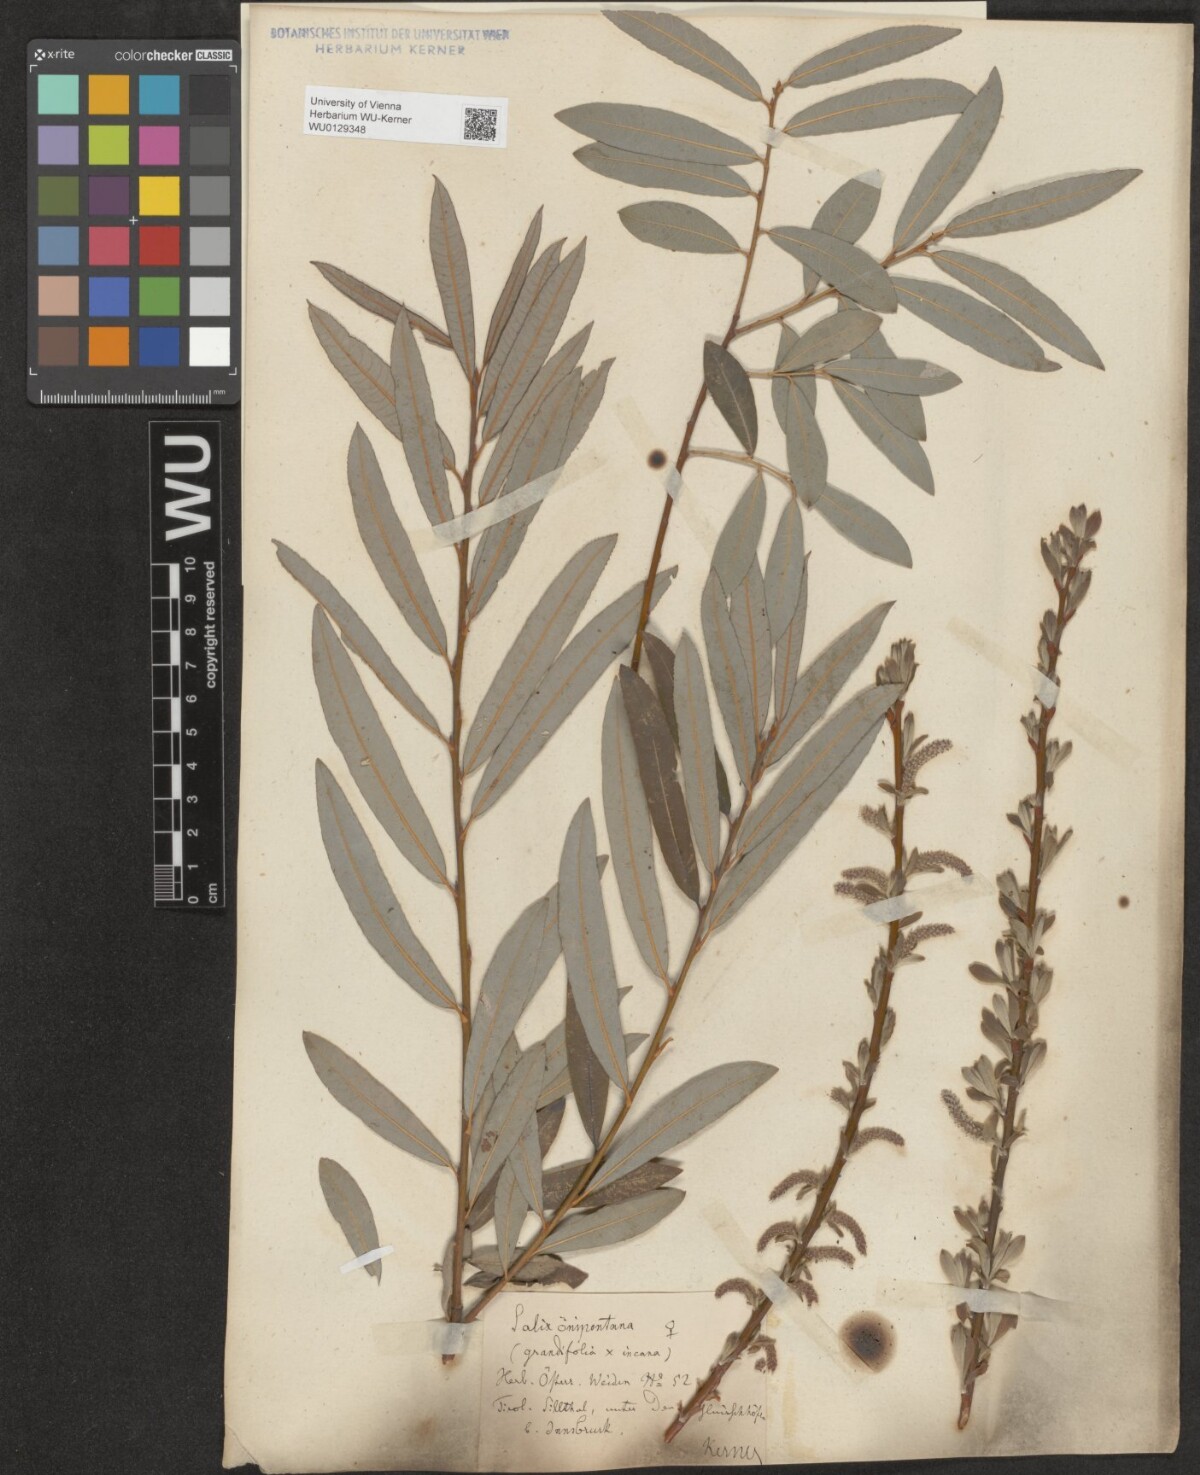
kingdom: Plantae
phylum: Tracheophyta
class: Magnoliopsida
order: Malpighiales
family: Salicaceae
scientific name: Salicaceae
